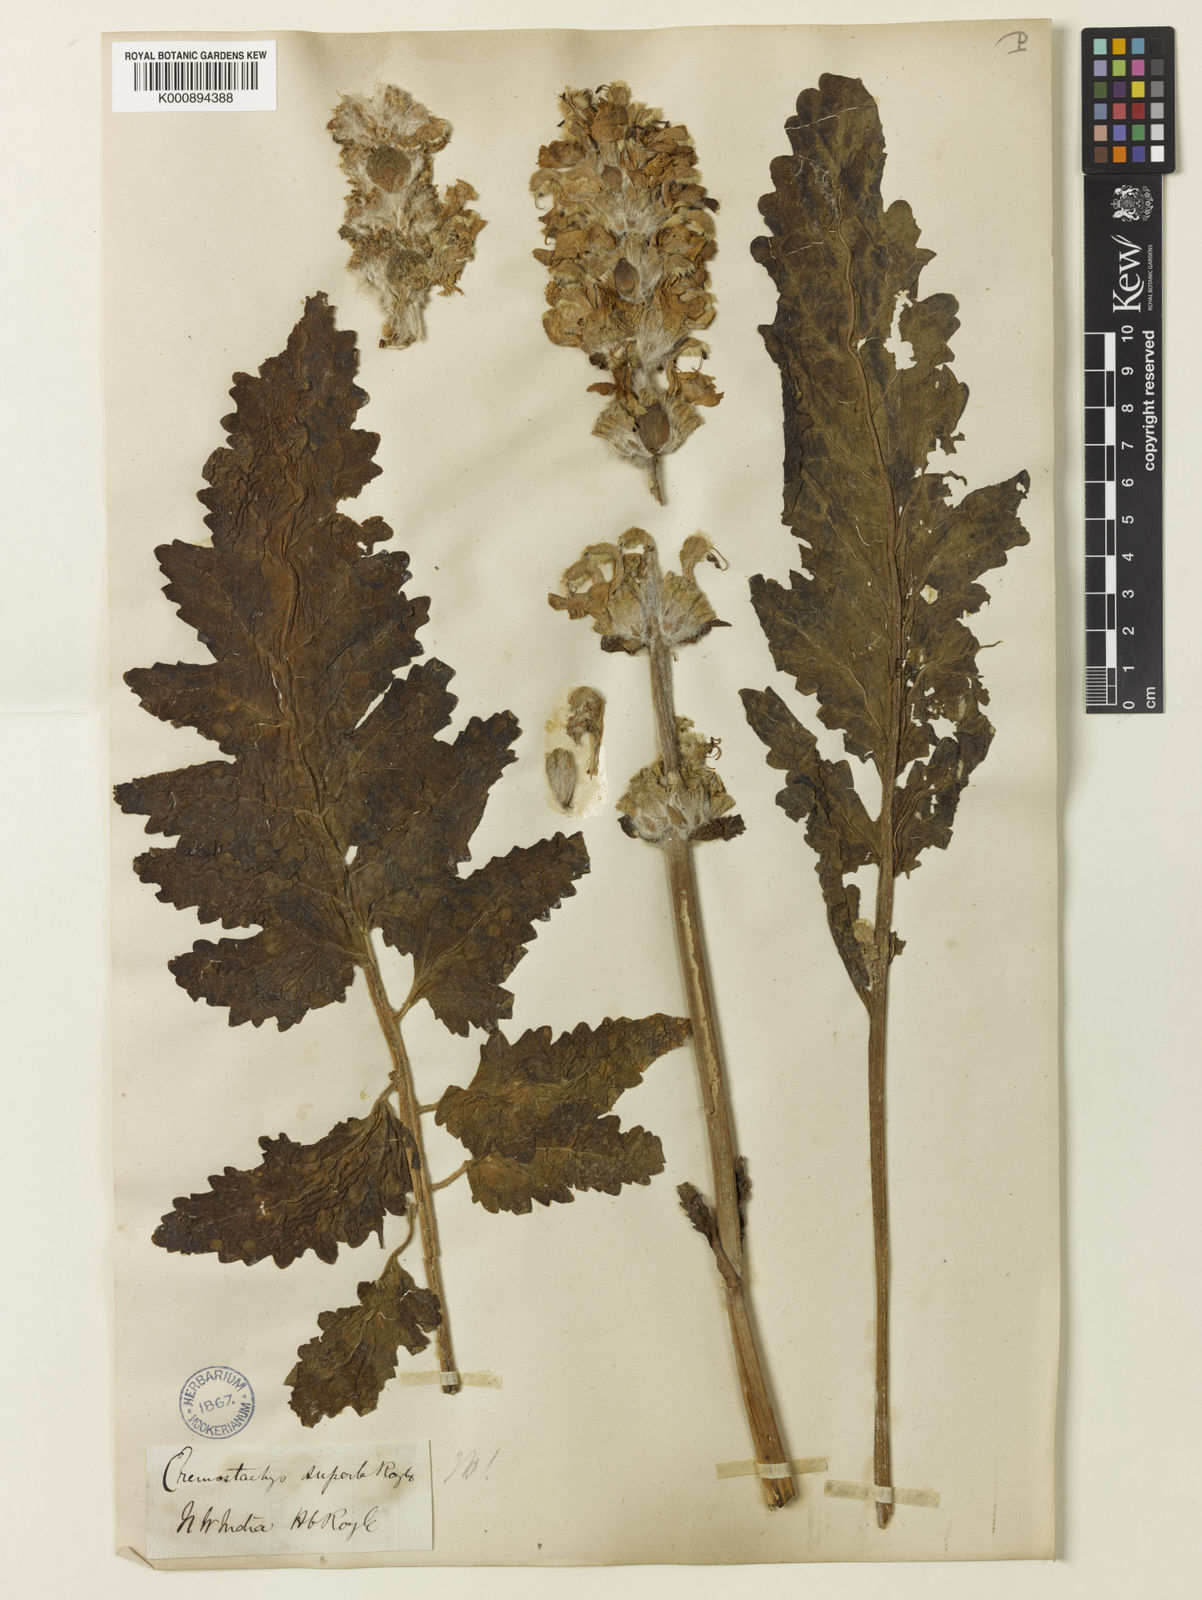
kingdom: Plantae
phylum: Tracheophyta
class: Magnoliopsida
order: Lamiales
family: Lamiaceae
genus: Phlomoides
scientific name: Phlomoides superba
